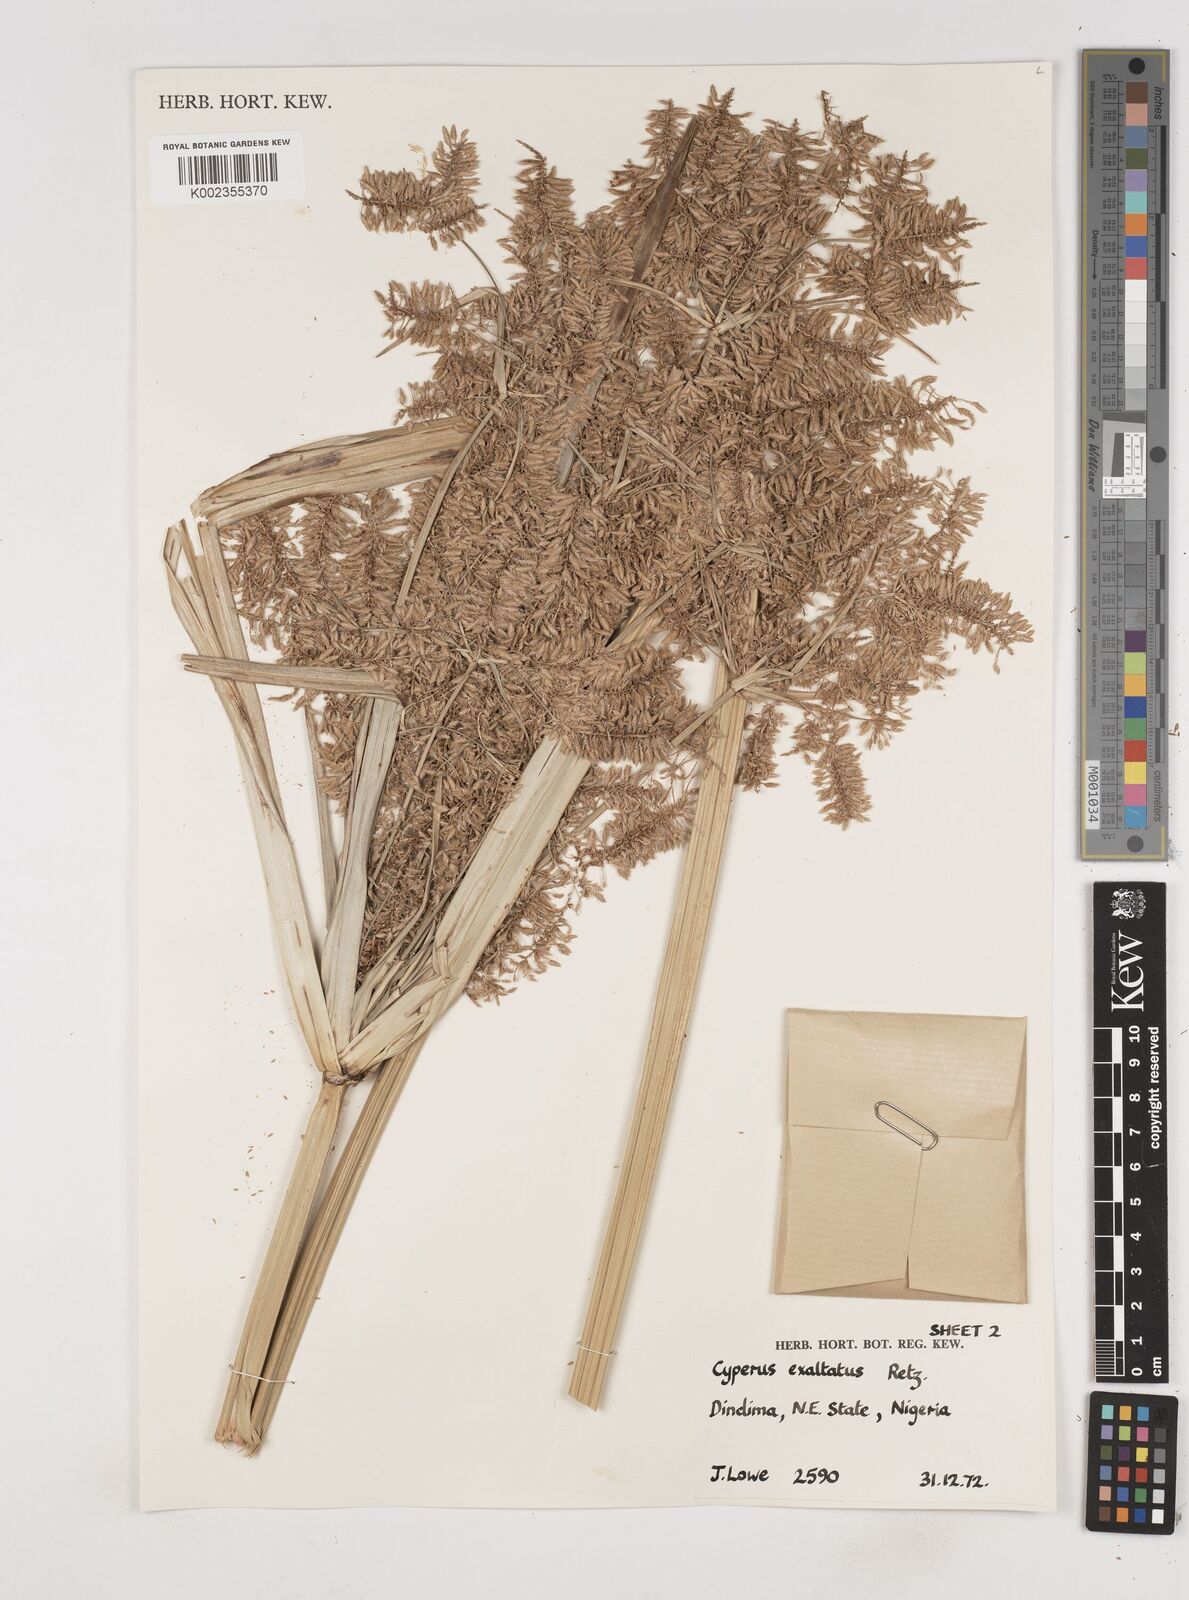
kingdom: Plantae
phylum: Tracheophyta
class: Liliopsida
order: Poales
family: Cyperaceae
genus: Cyperus
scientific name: Cyperus exaltatus
